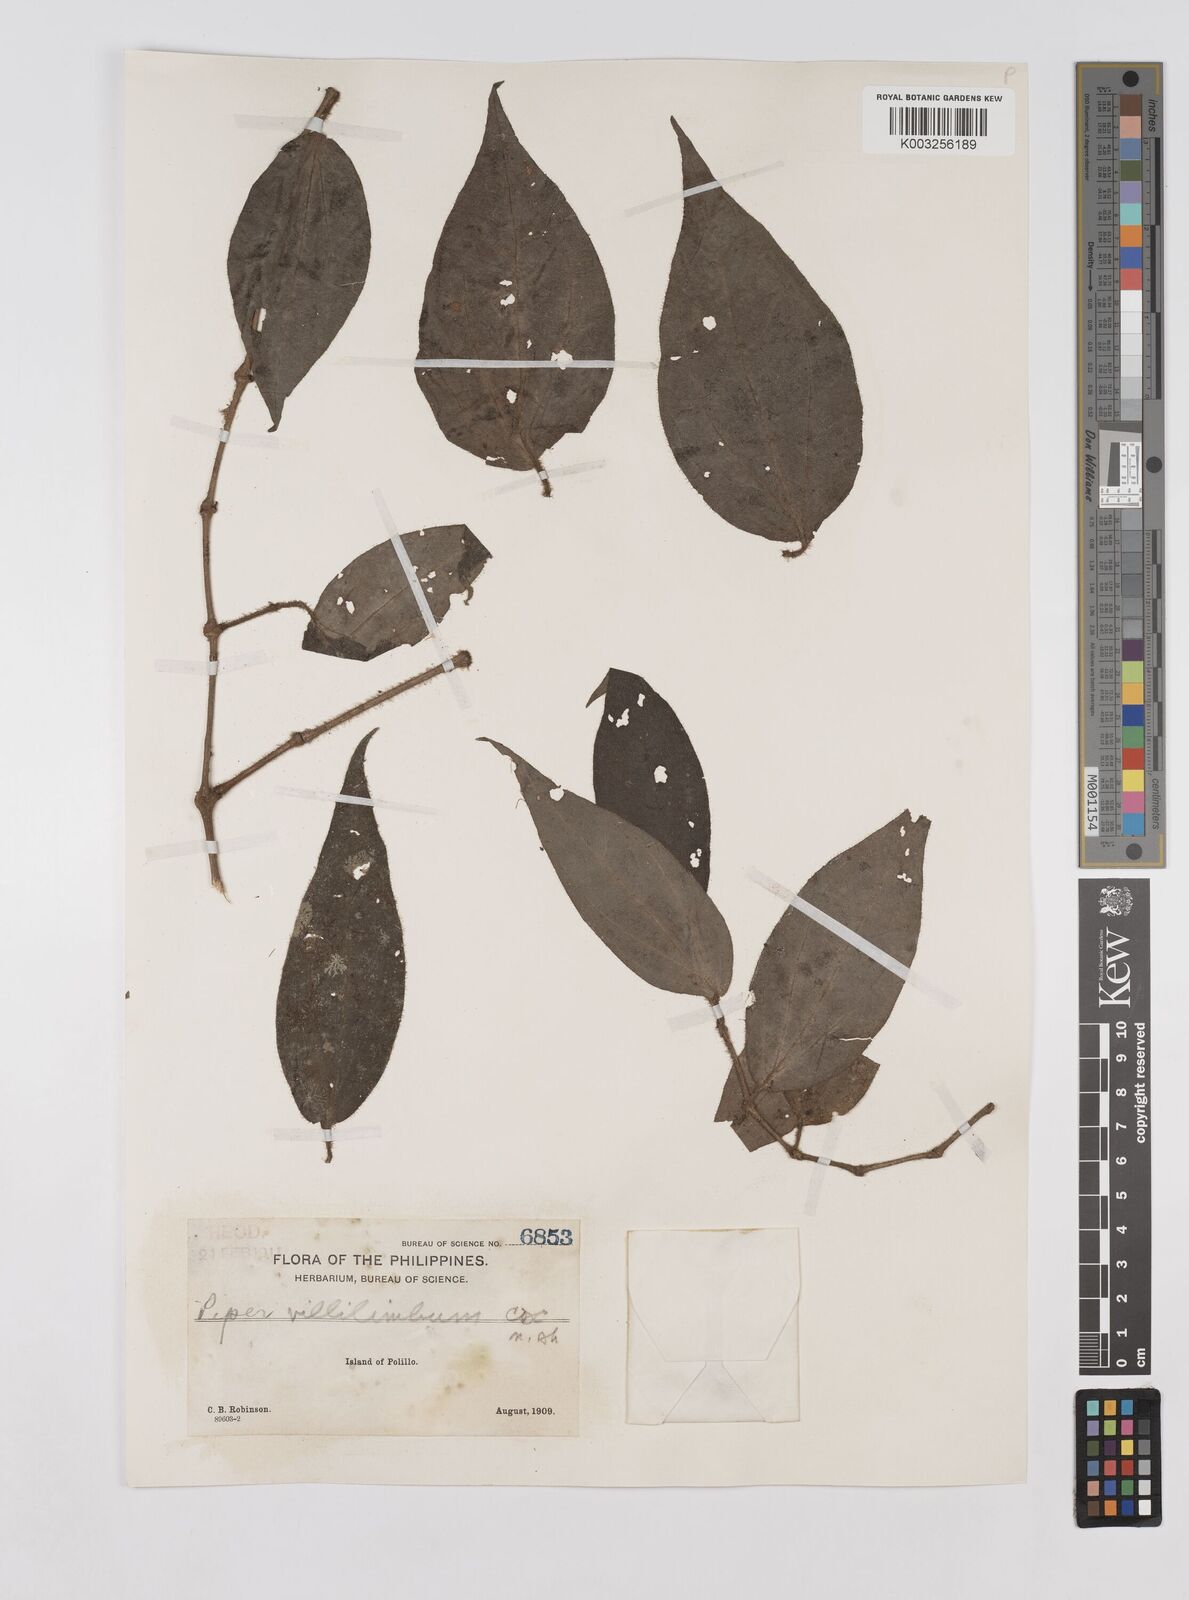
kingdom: Plantae
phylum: Tracheophyta
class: Magnoliopsida
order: Piperales
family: Piperaceae
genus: Piper
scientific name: Piper lanatum
